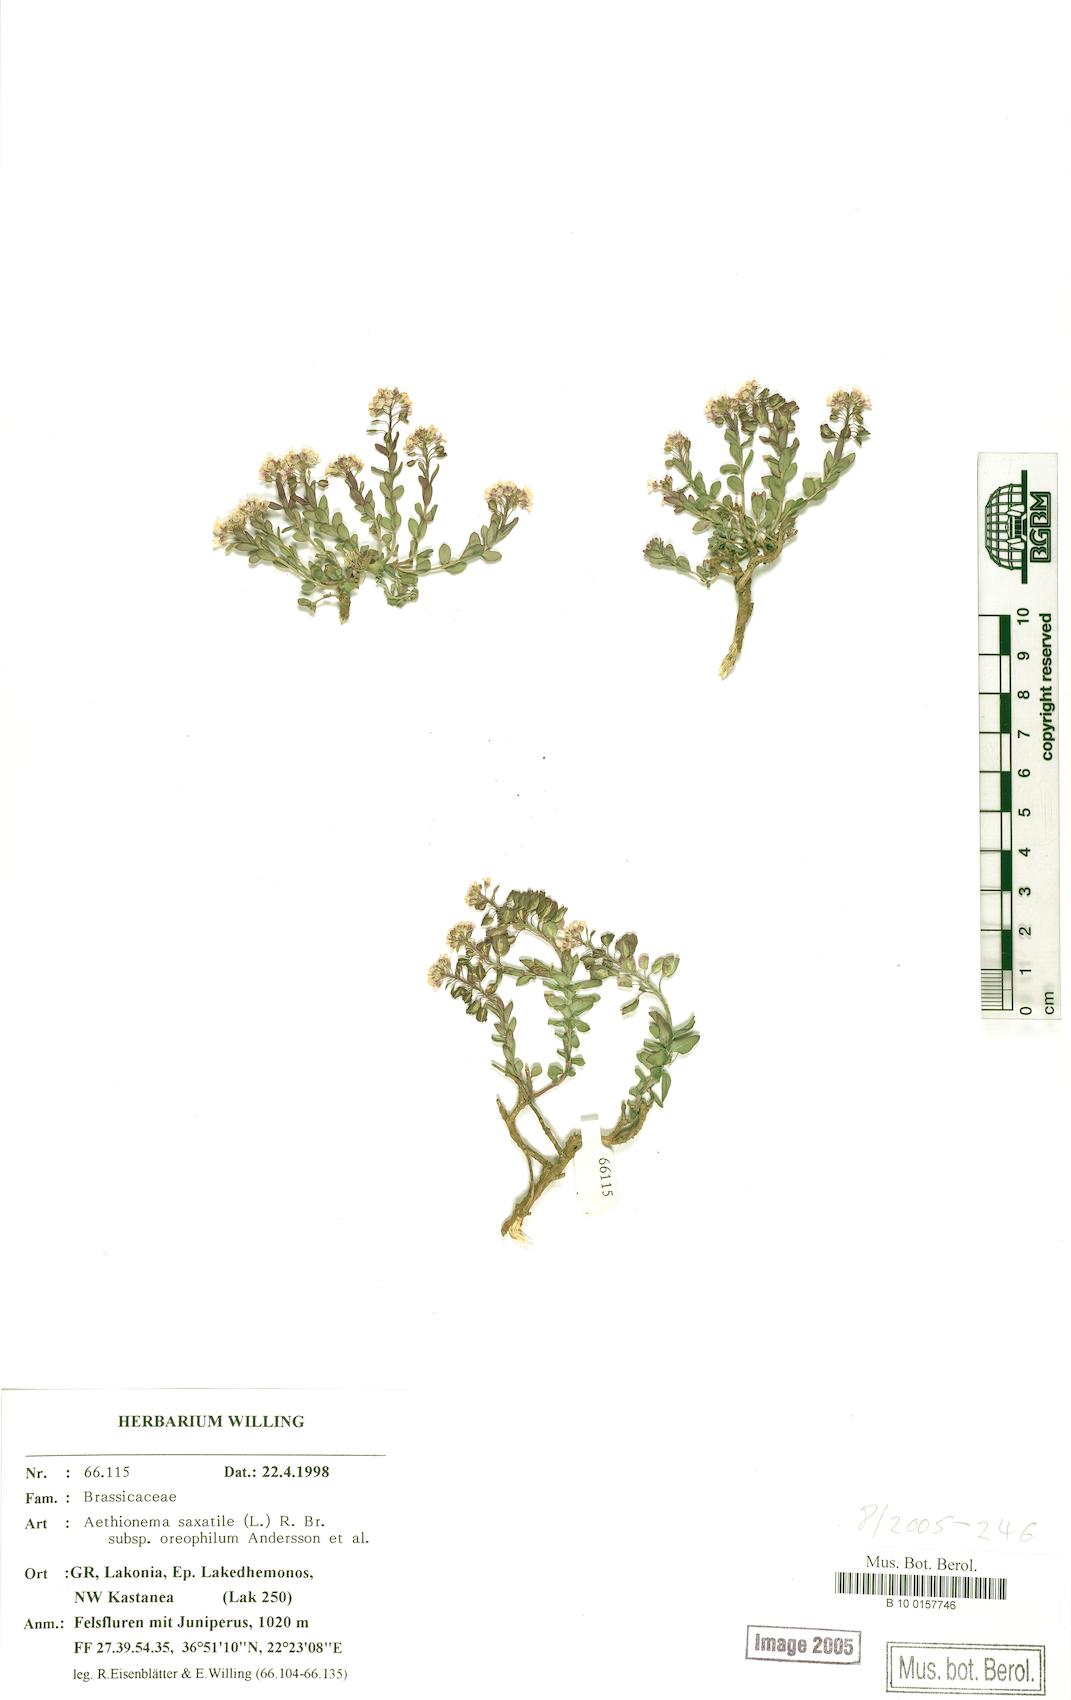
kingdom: Plantae
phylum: Tracheophyta
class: Magnoliopsida
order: Brassicales
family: Brassicaceae
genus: Aethionema
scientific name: Aethionema saxatile
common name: Burnt candytuft
